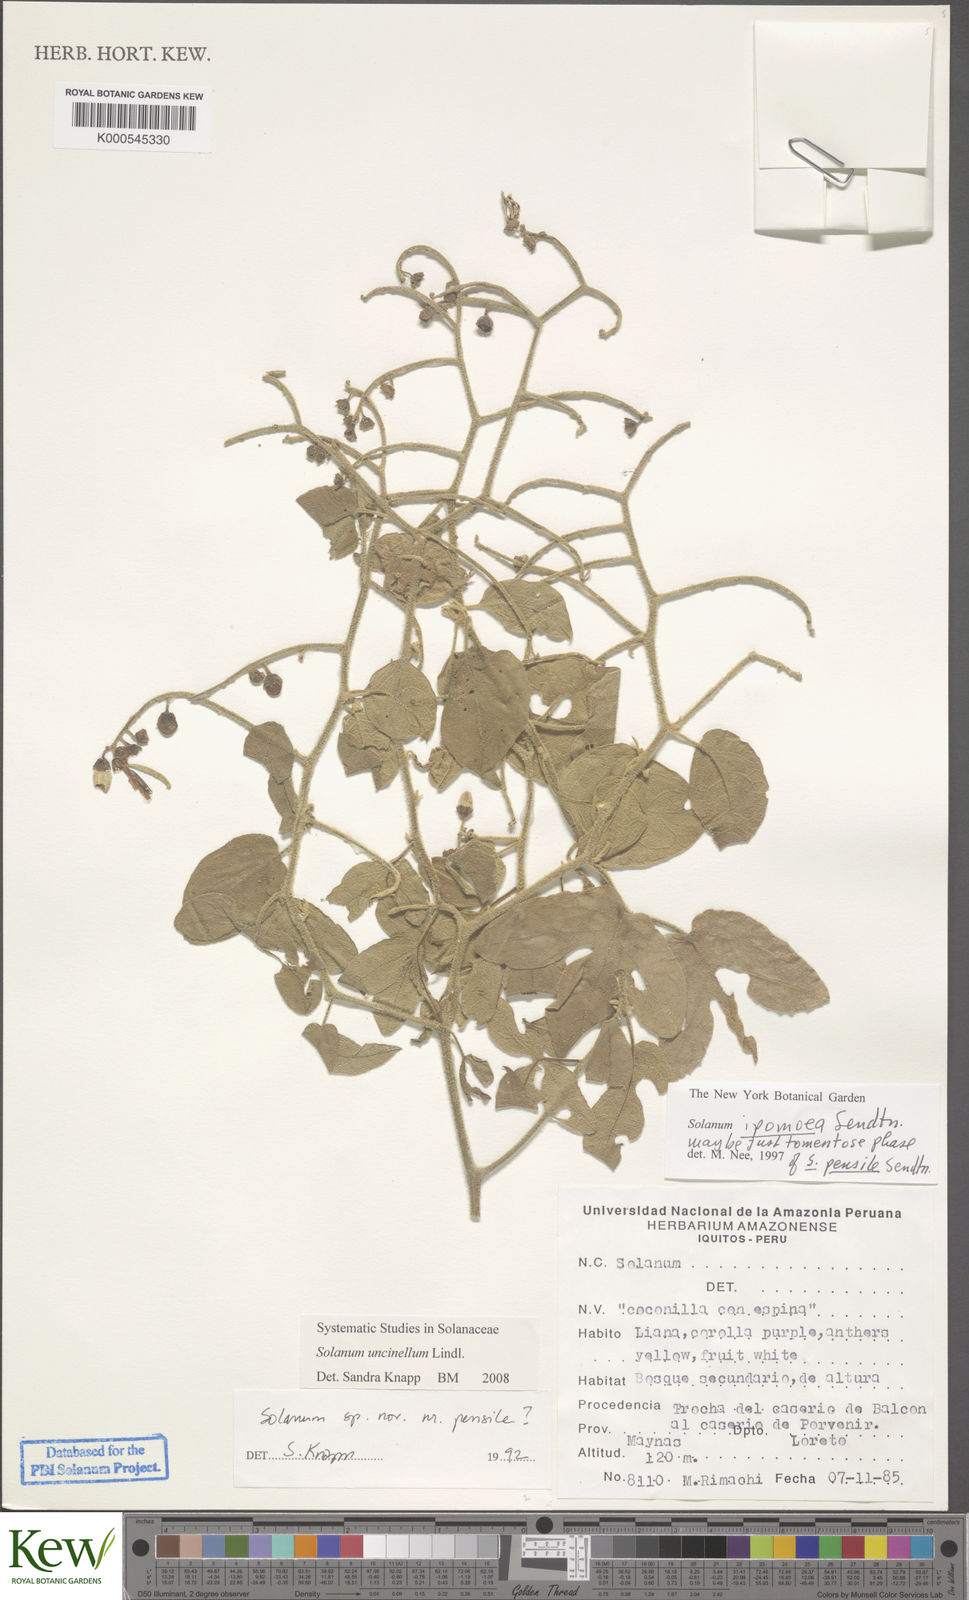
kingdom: Plantae
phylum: Tracheophyta
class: Magnoliopsida
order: Solanales
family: Solanaceae
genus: Solanum
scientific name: Solanum uncinellum
